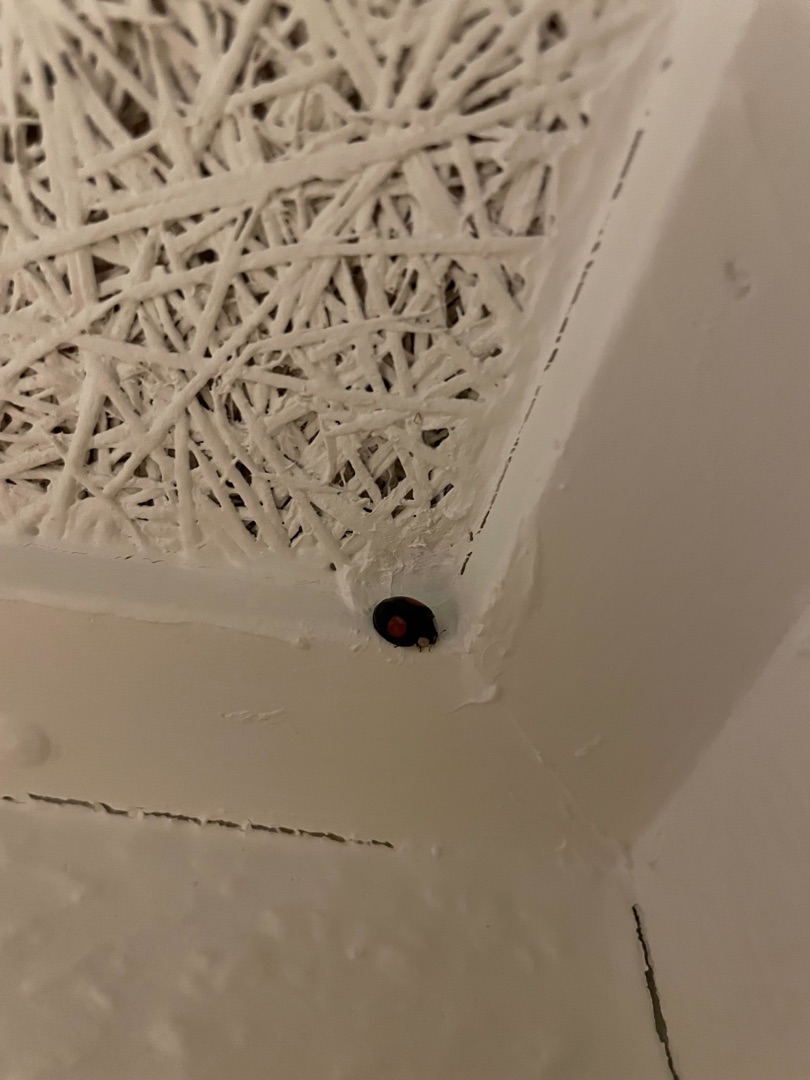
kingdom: Animalia
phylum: Arthropoda
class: Insecta
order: Coleoptera
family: Coccinellidae
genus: Harmonia
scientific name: Harmonia axyridis
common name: Harlekinmariehøne
